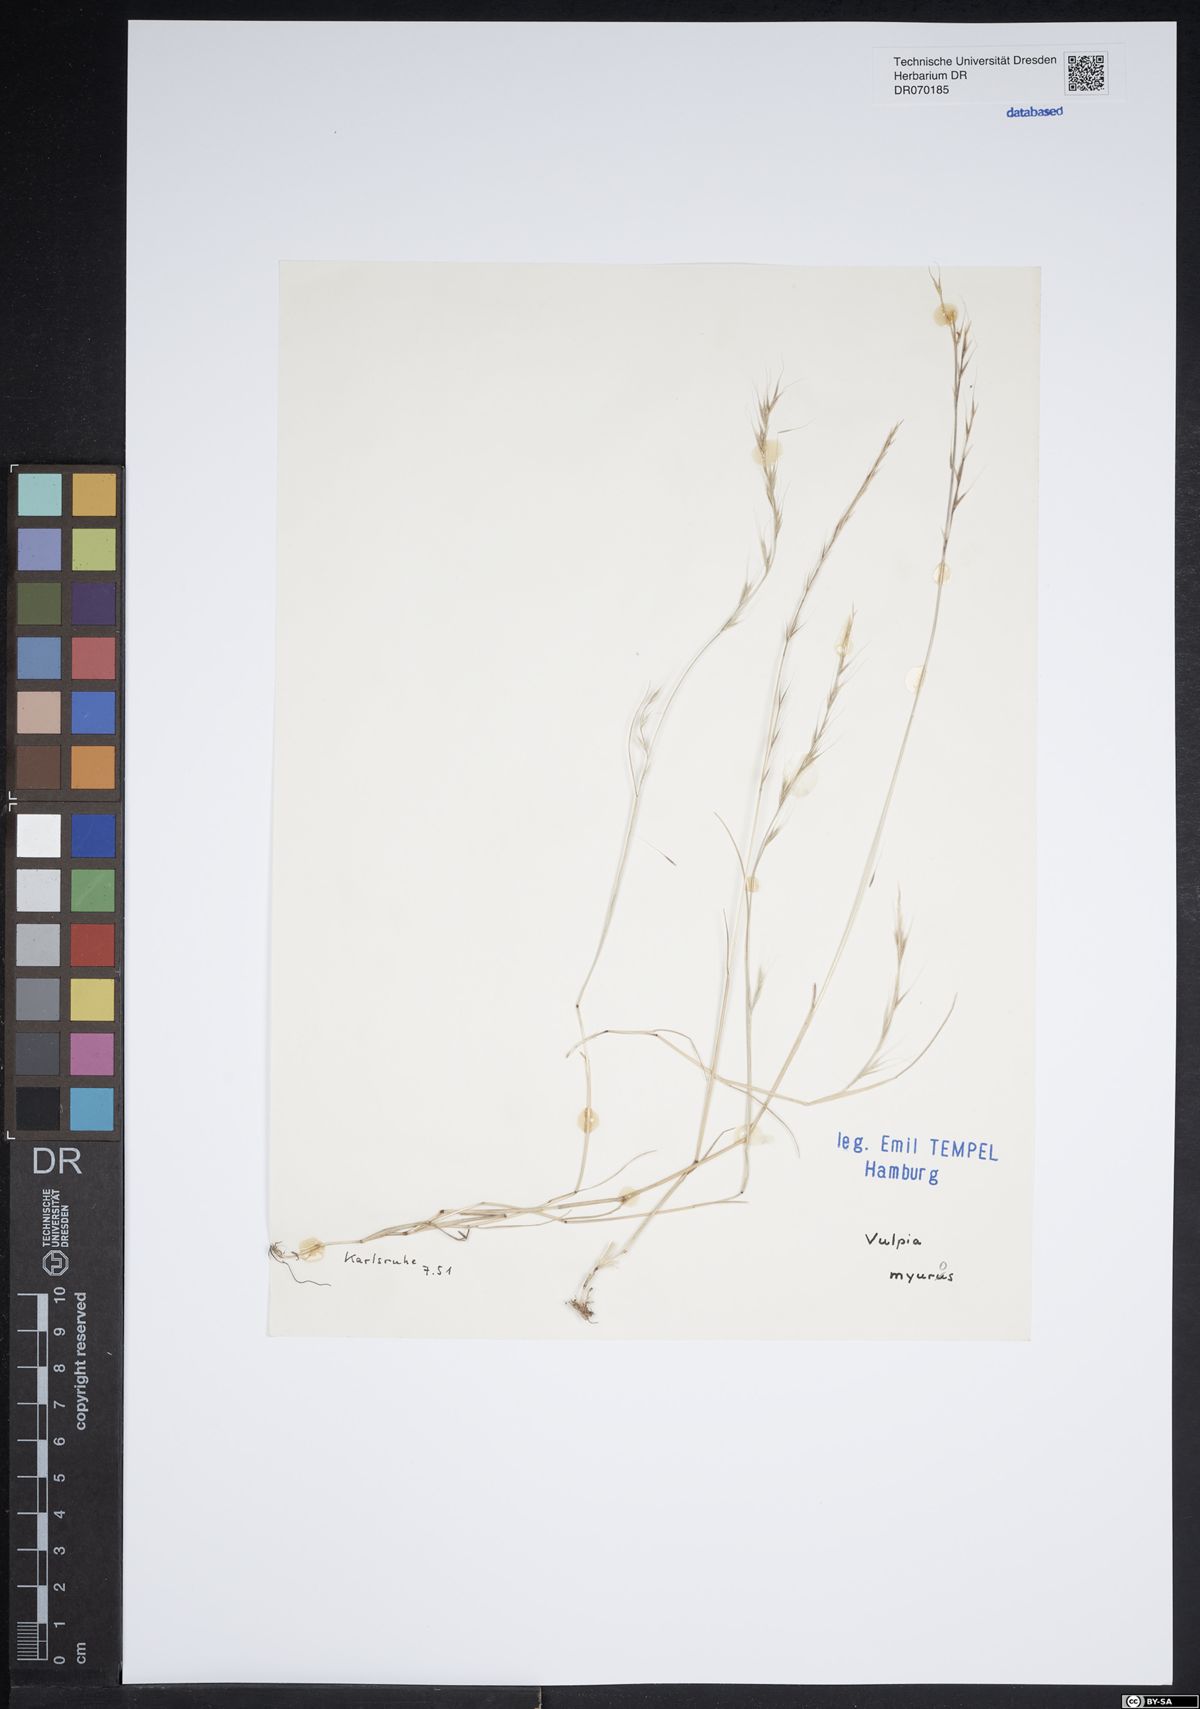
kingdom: Plantae
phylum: Tracheophyta
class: Liliopsida
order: Poales
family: Poaceae
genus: Festuca
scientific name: Festuca myuros
